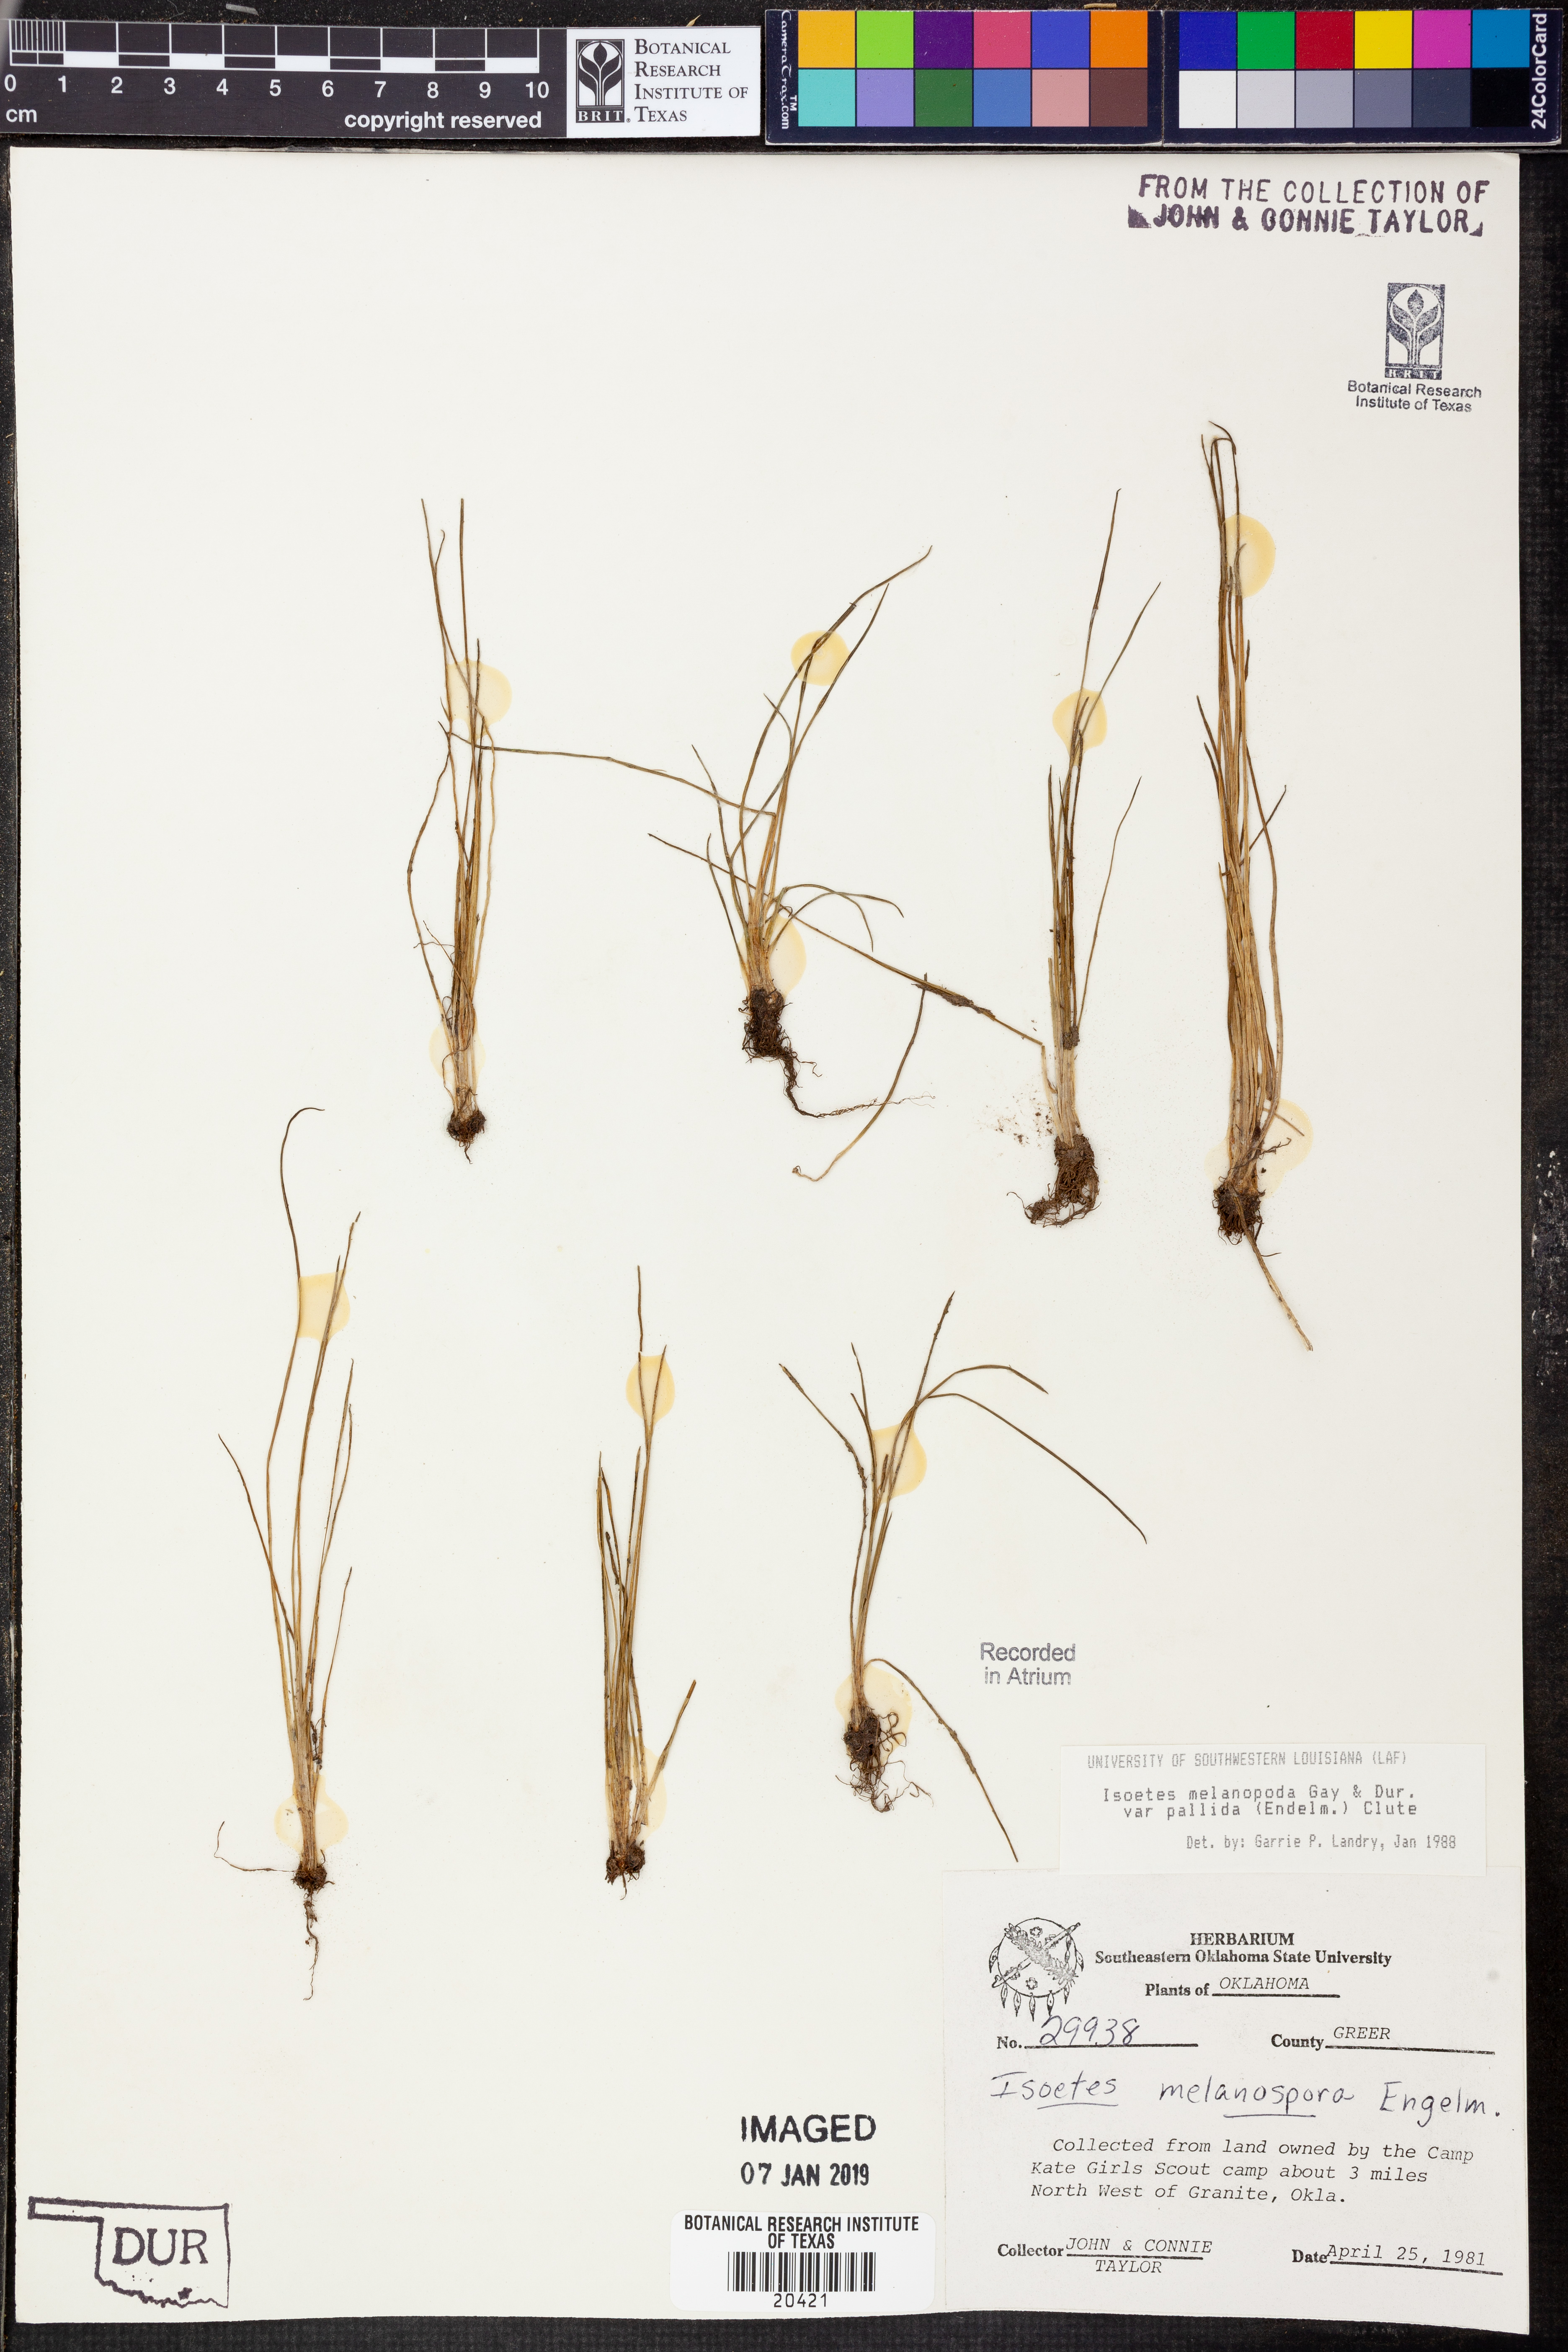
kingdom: Plantae
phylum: Tracheophyta
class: Lycopodiopsida
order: Isoetales
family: Isoetaceae
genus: Isoetes
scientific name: Isoetes melanopoda
